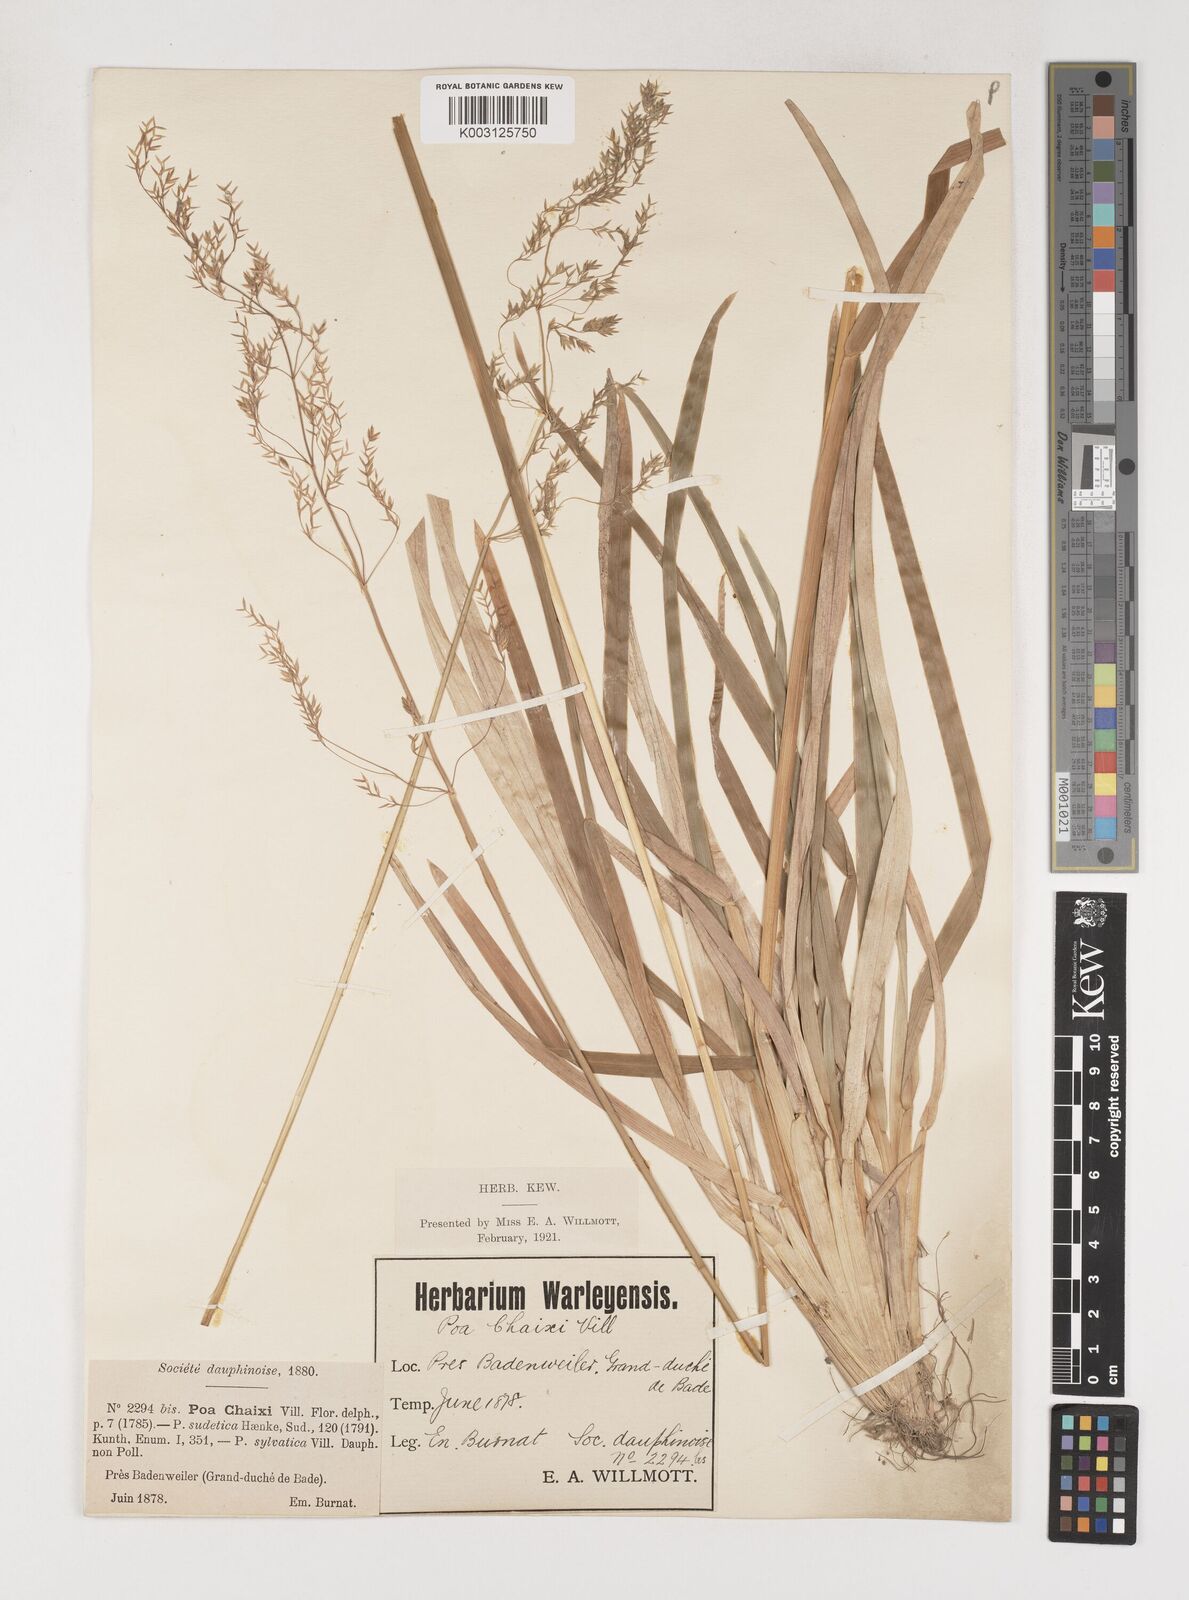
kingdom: Plantae
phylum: Tracheophyta
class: Liliopsida
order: Poales
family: Poaceae
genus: Poa
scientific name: Poa chaixii
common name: Broad-leaved meadow-grass
